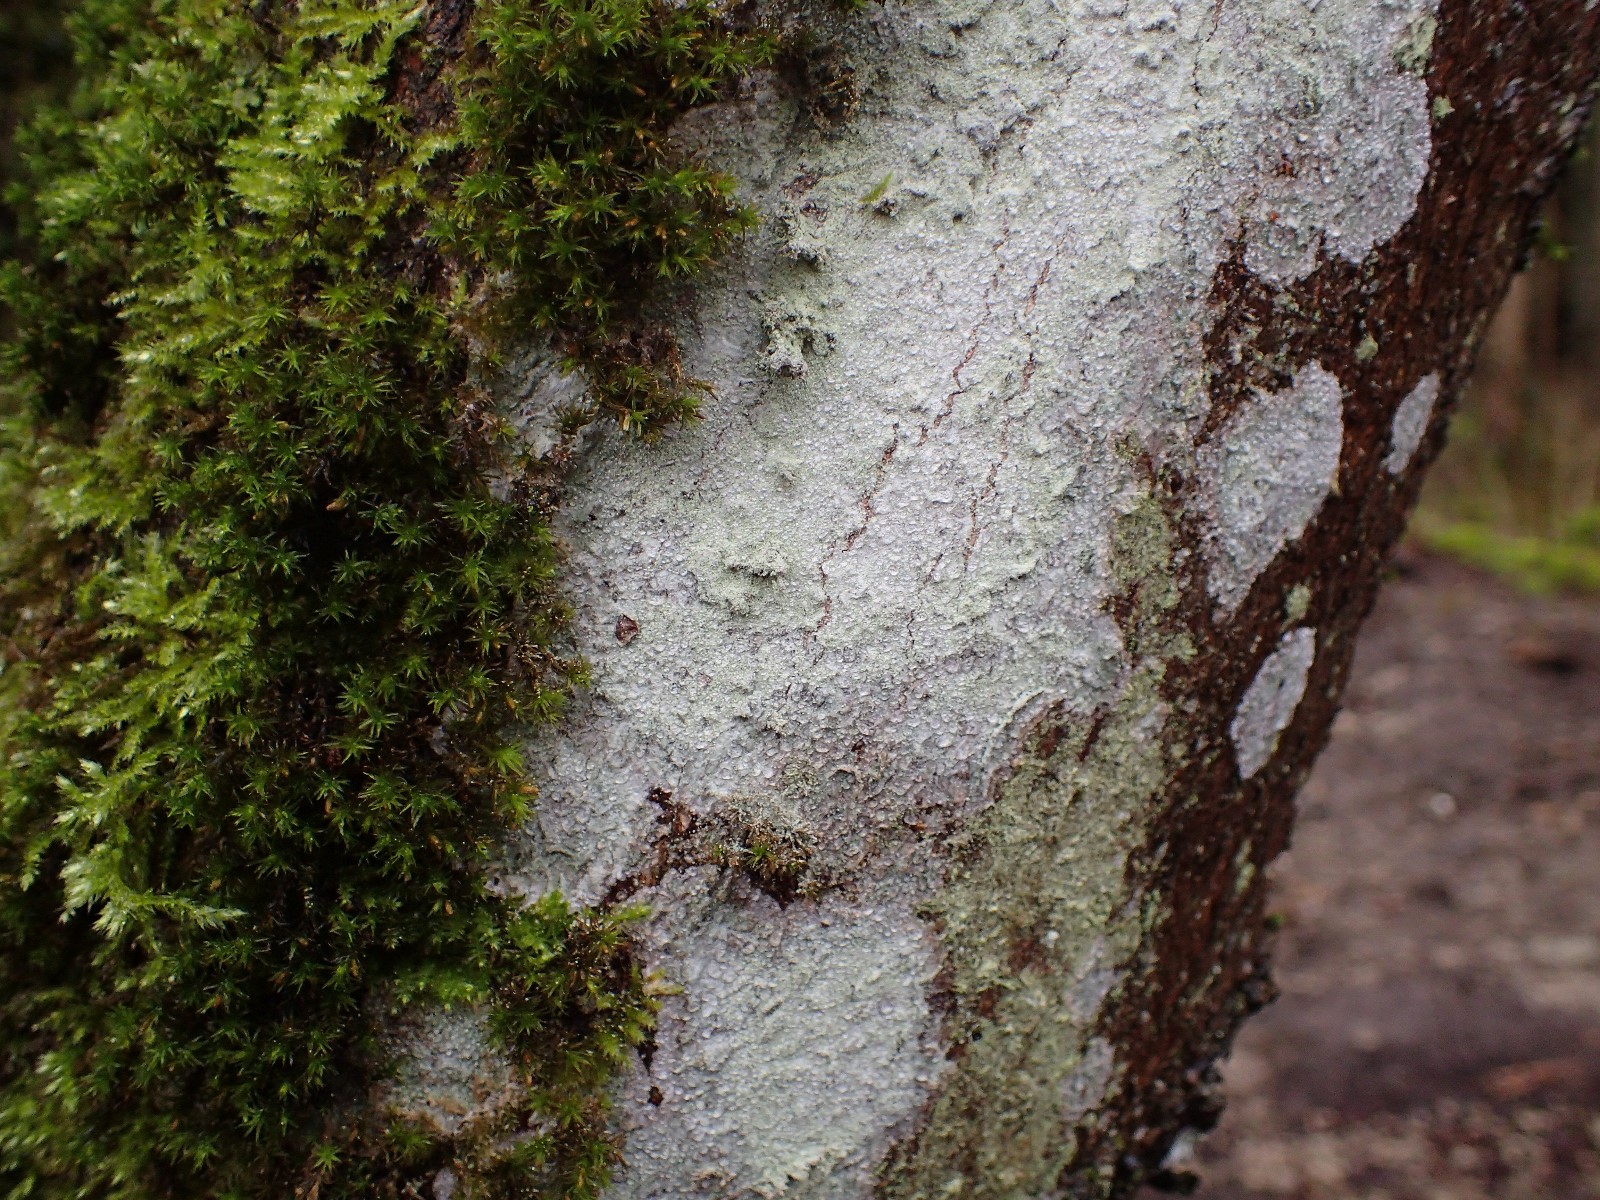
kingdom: Fungi
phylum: Ascomycota
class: Lecanoromycetes
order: Ostropales
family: Phlyctidaceae
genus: Phlyctis
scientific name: Phlyctis argena
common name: almindelig sølvlav
